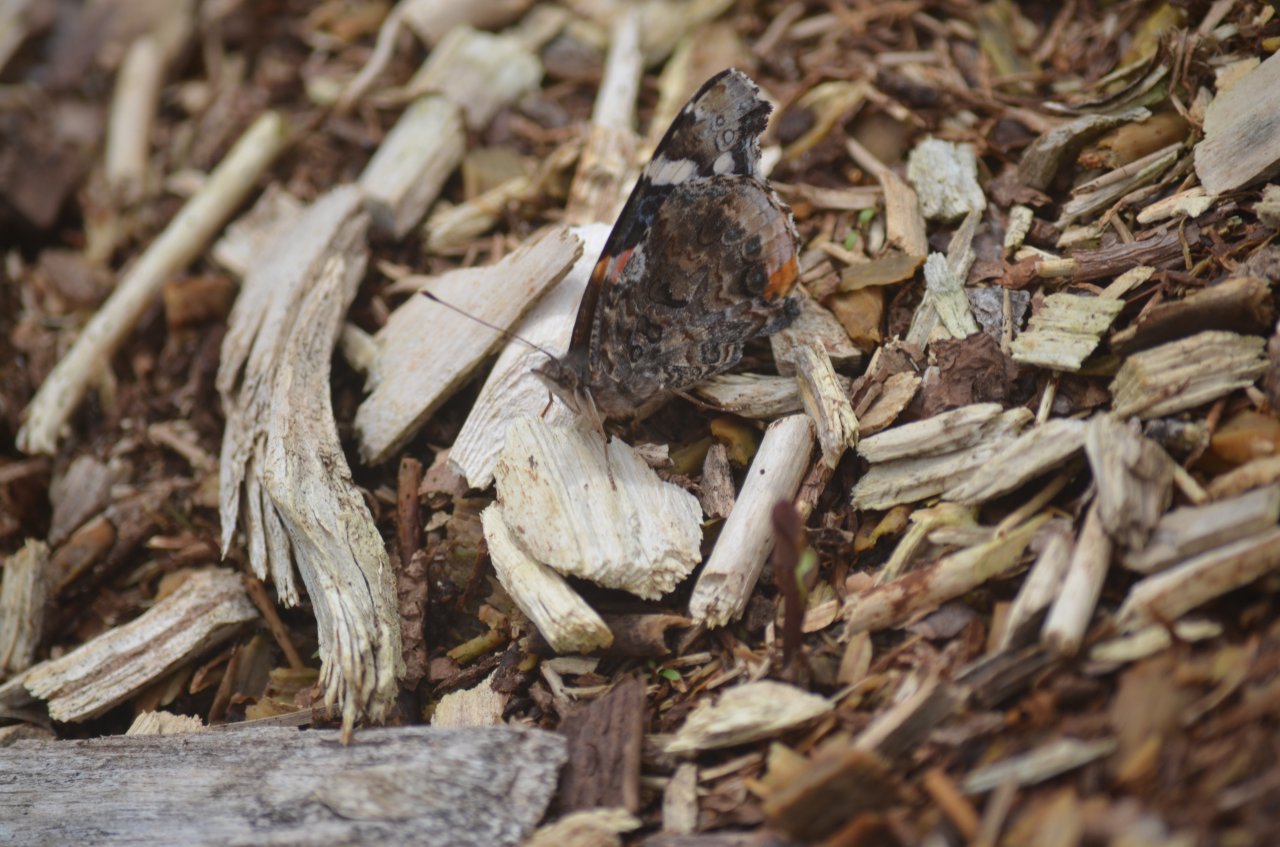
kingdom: Animalia
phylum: Arthropoda
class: Insecta
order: Lepidoptera
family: Nymphalidae
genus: Vanessa
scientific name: Vanessa atalanta
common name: Red Admiral
